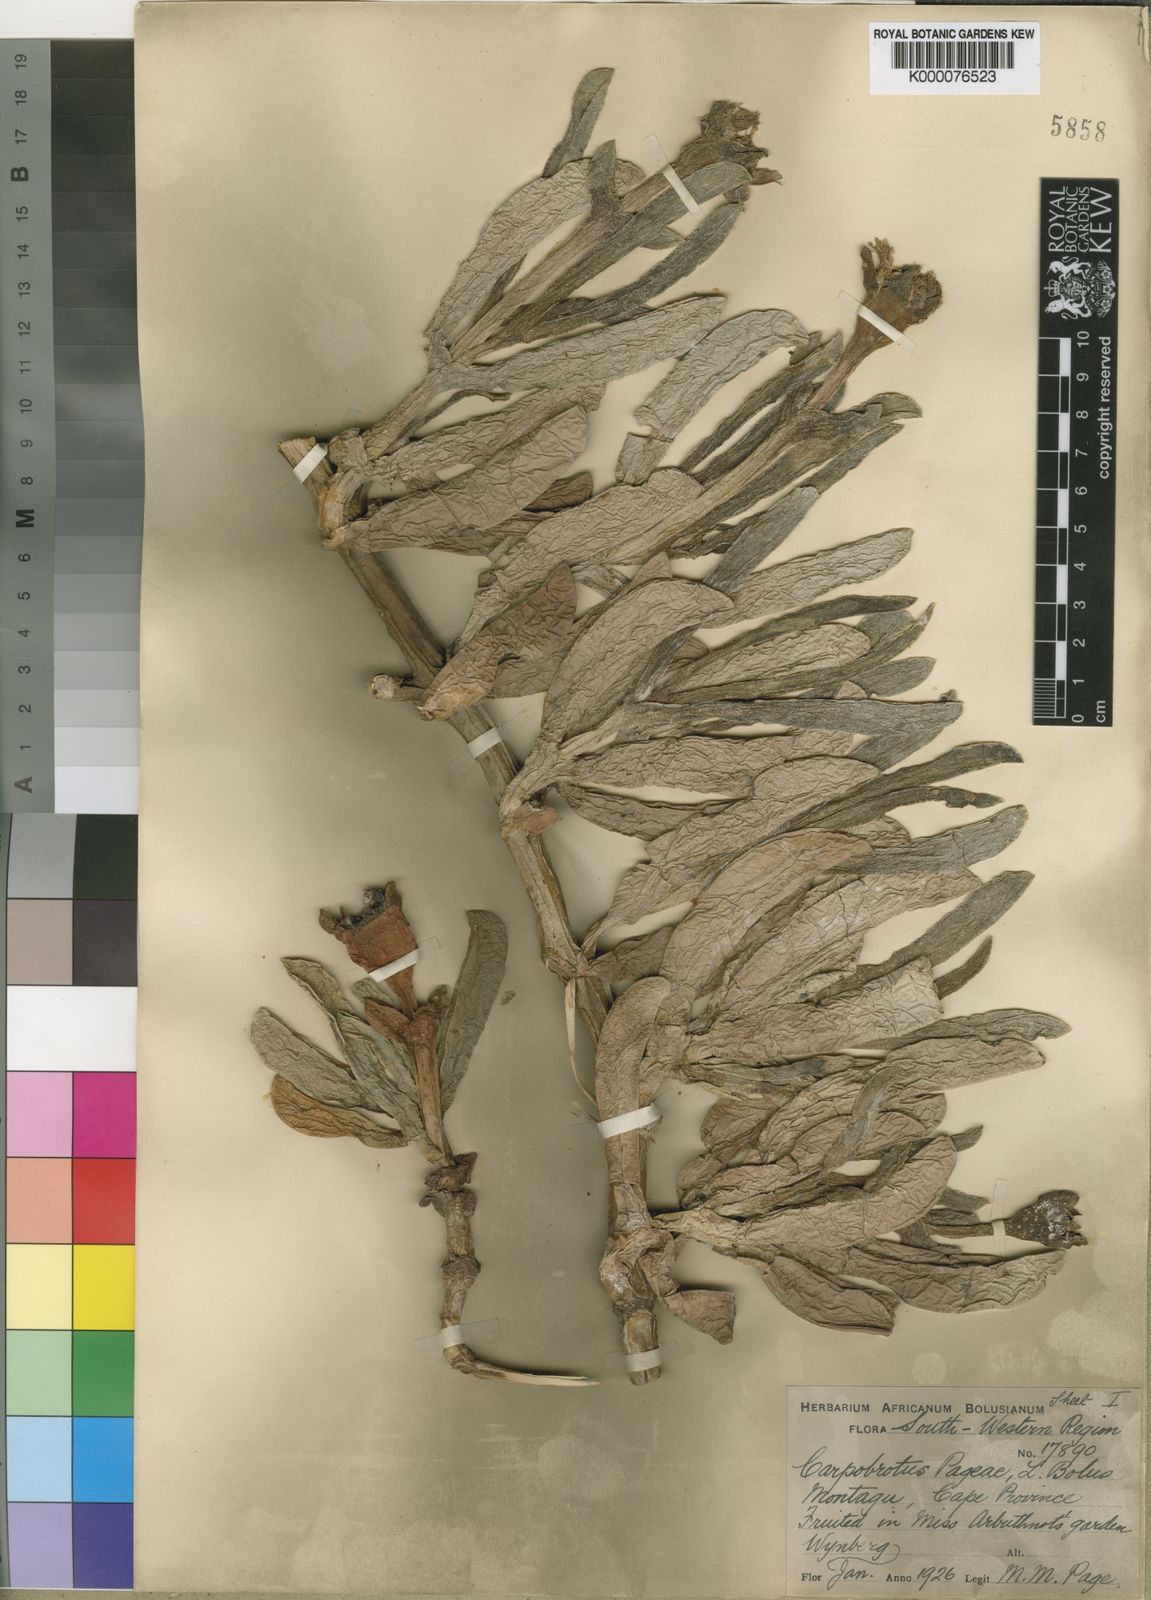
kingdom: Plantae
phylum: Tracheophyta
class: Magnoliopsida
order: Caryophyllales
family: Aizoaceae
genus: Carpobrotus
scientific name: Carpobrotus mellei
